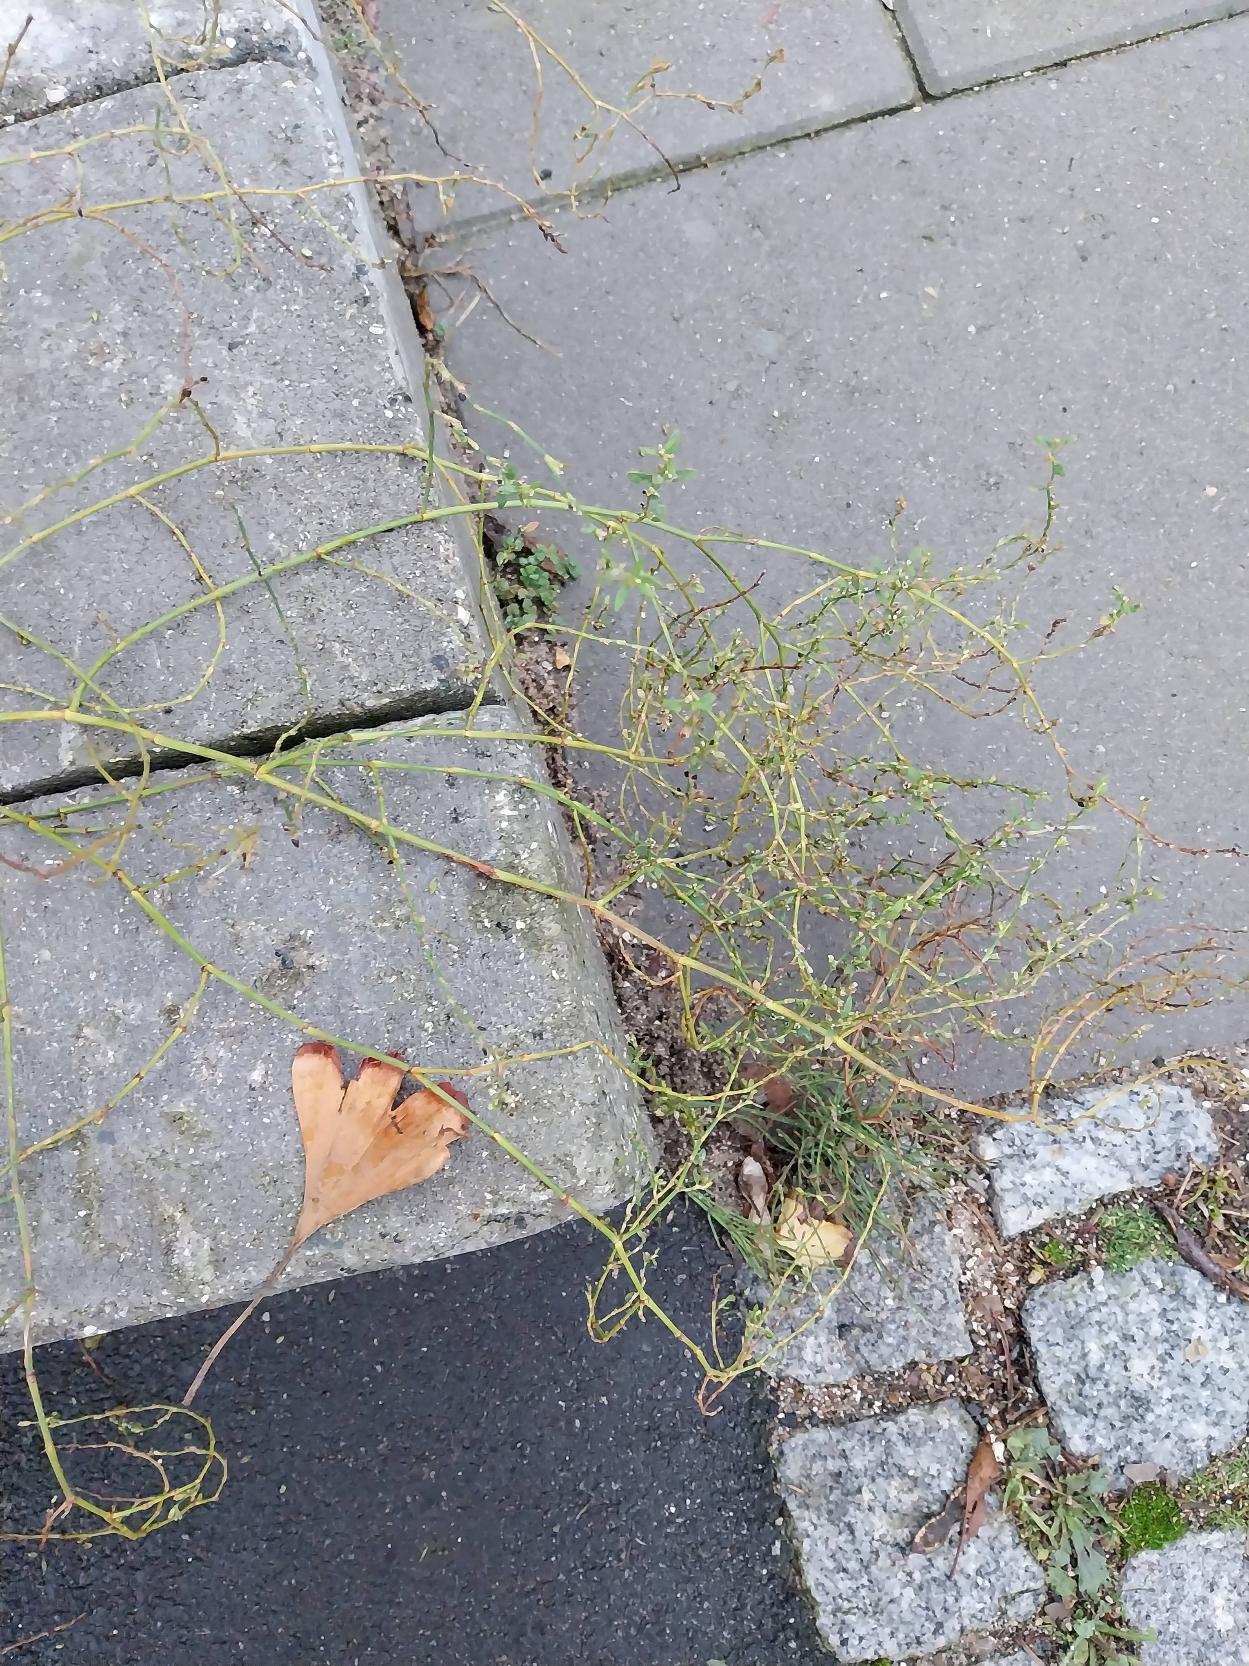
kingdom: Plantae
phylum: Tracheophyta
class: Magnoliopsida
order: Caryophyllales
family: Polygonaceae
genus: Polygonum
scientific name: Polygonum arenastrum
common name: Liggende vej-pileurt
